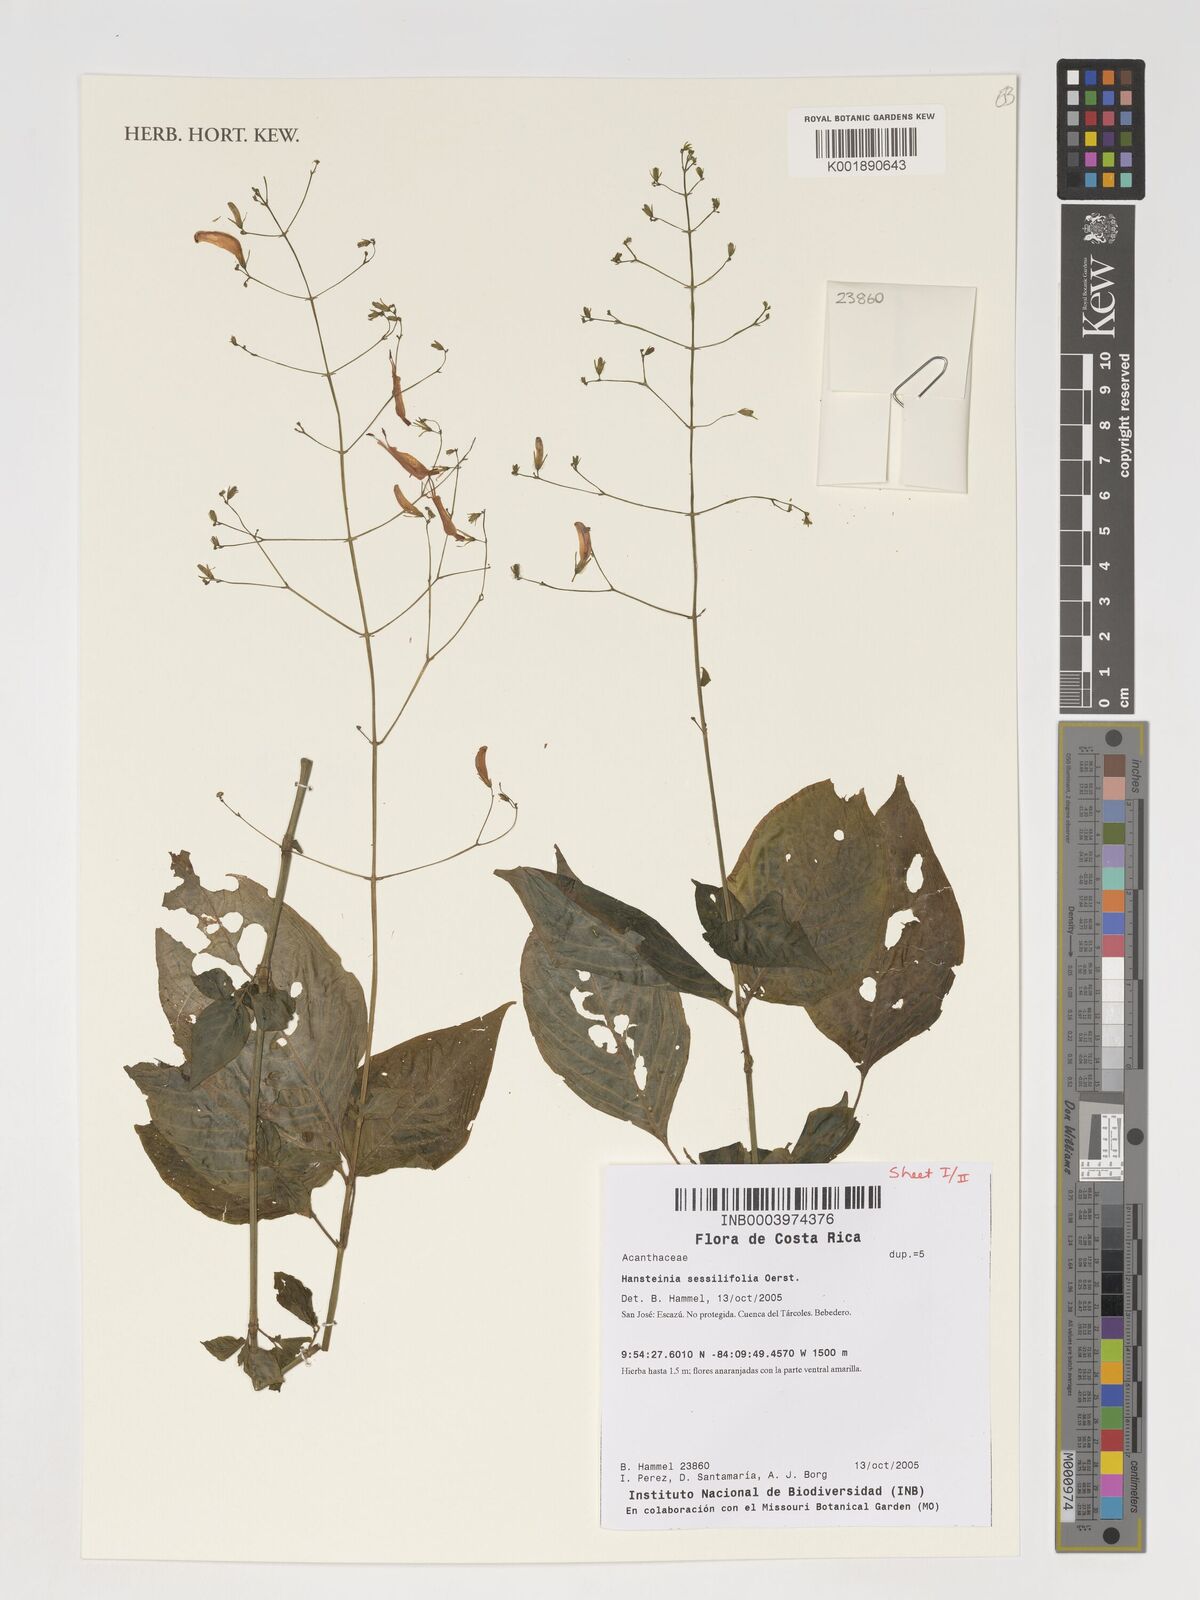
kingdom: Plantae
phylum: Tracheophyta
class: Magnoliopsida
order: Lamiales
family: Acanthaceae
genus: Stenostephanus
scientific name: Stenostephanus sessilifolius
